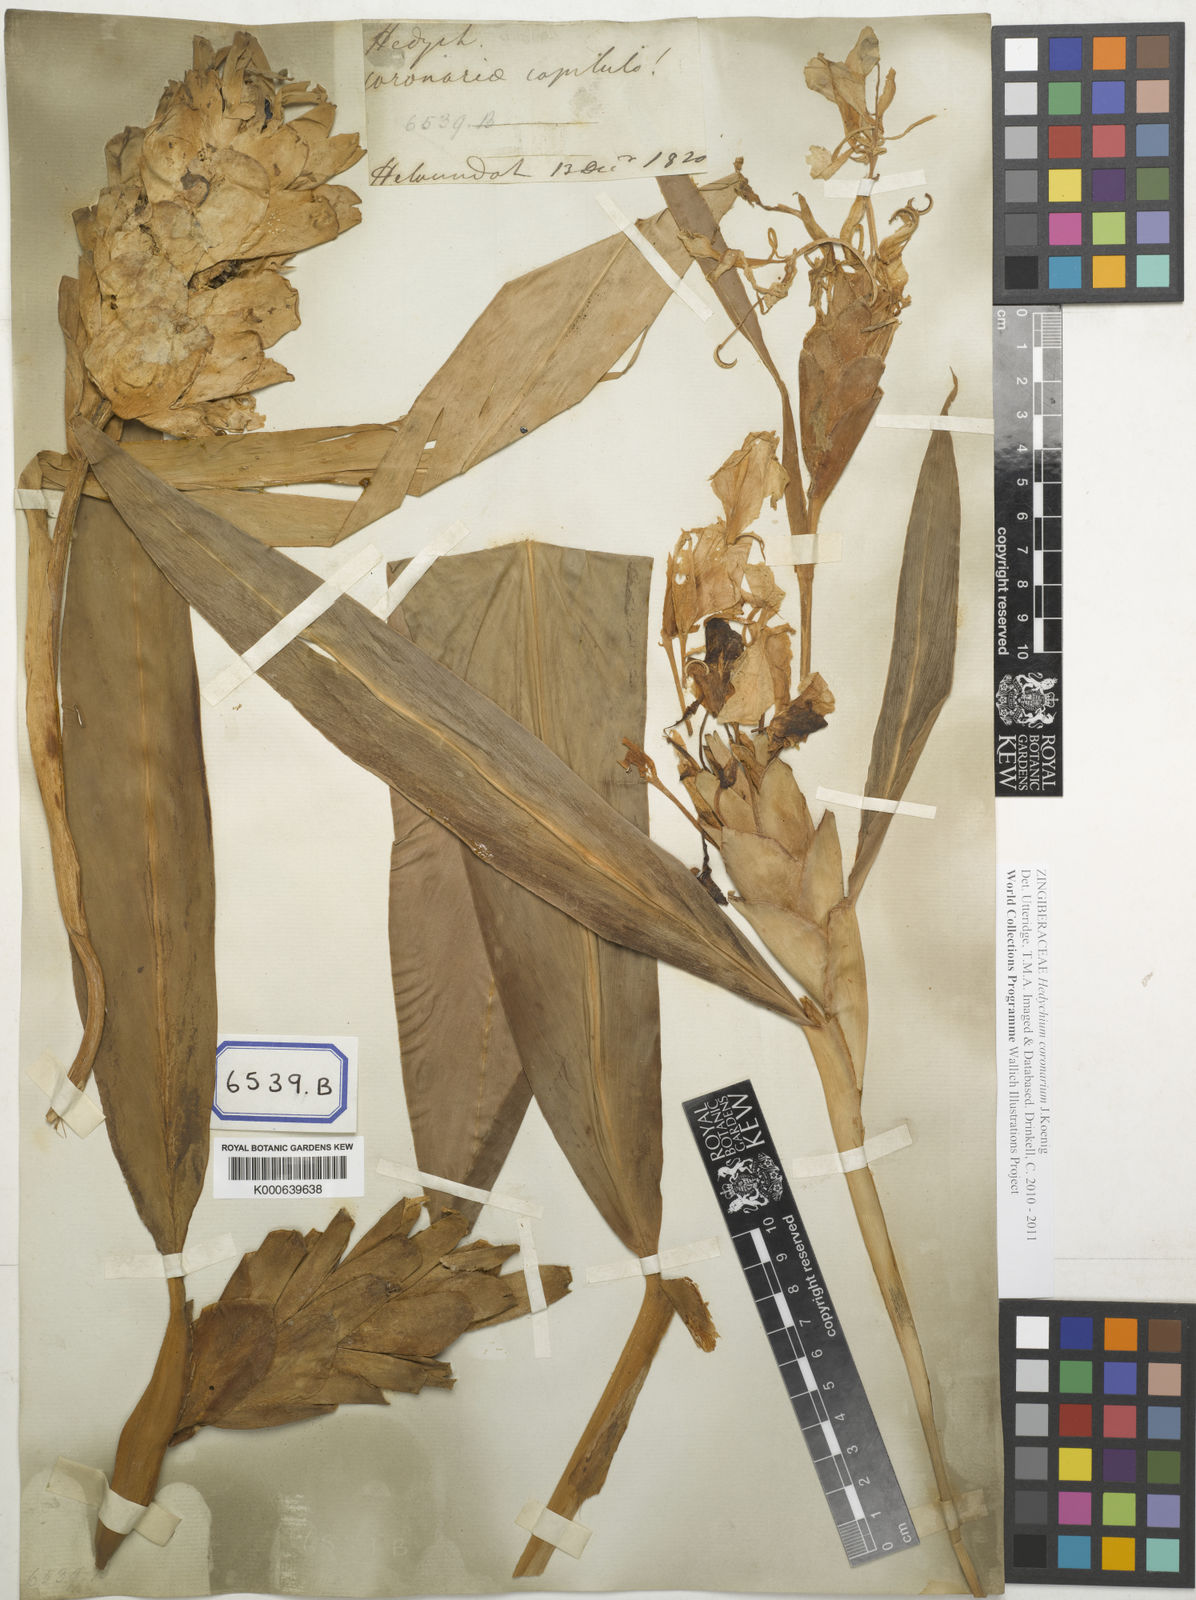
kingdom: Plantae
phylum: Tracheophyta
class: Liliopsida
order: Zingiberales
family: Zingiberaceae
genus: Hedychium
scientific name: Hedychium coronarium
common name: White garland-lily
